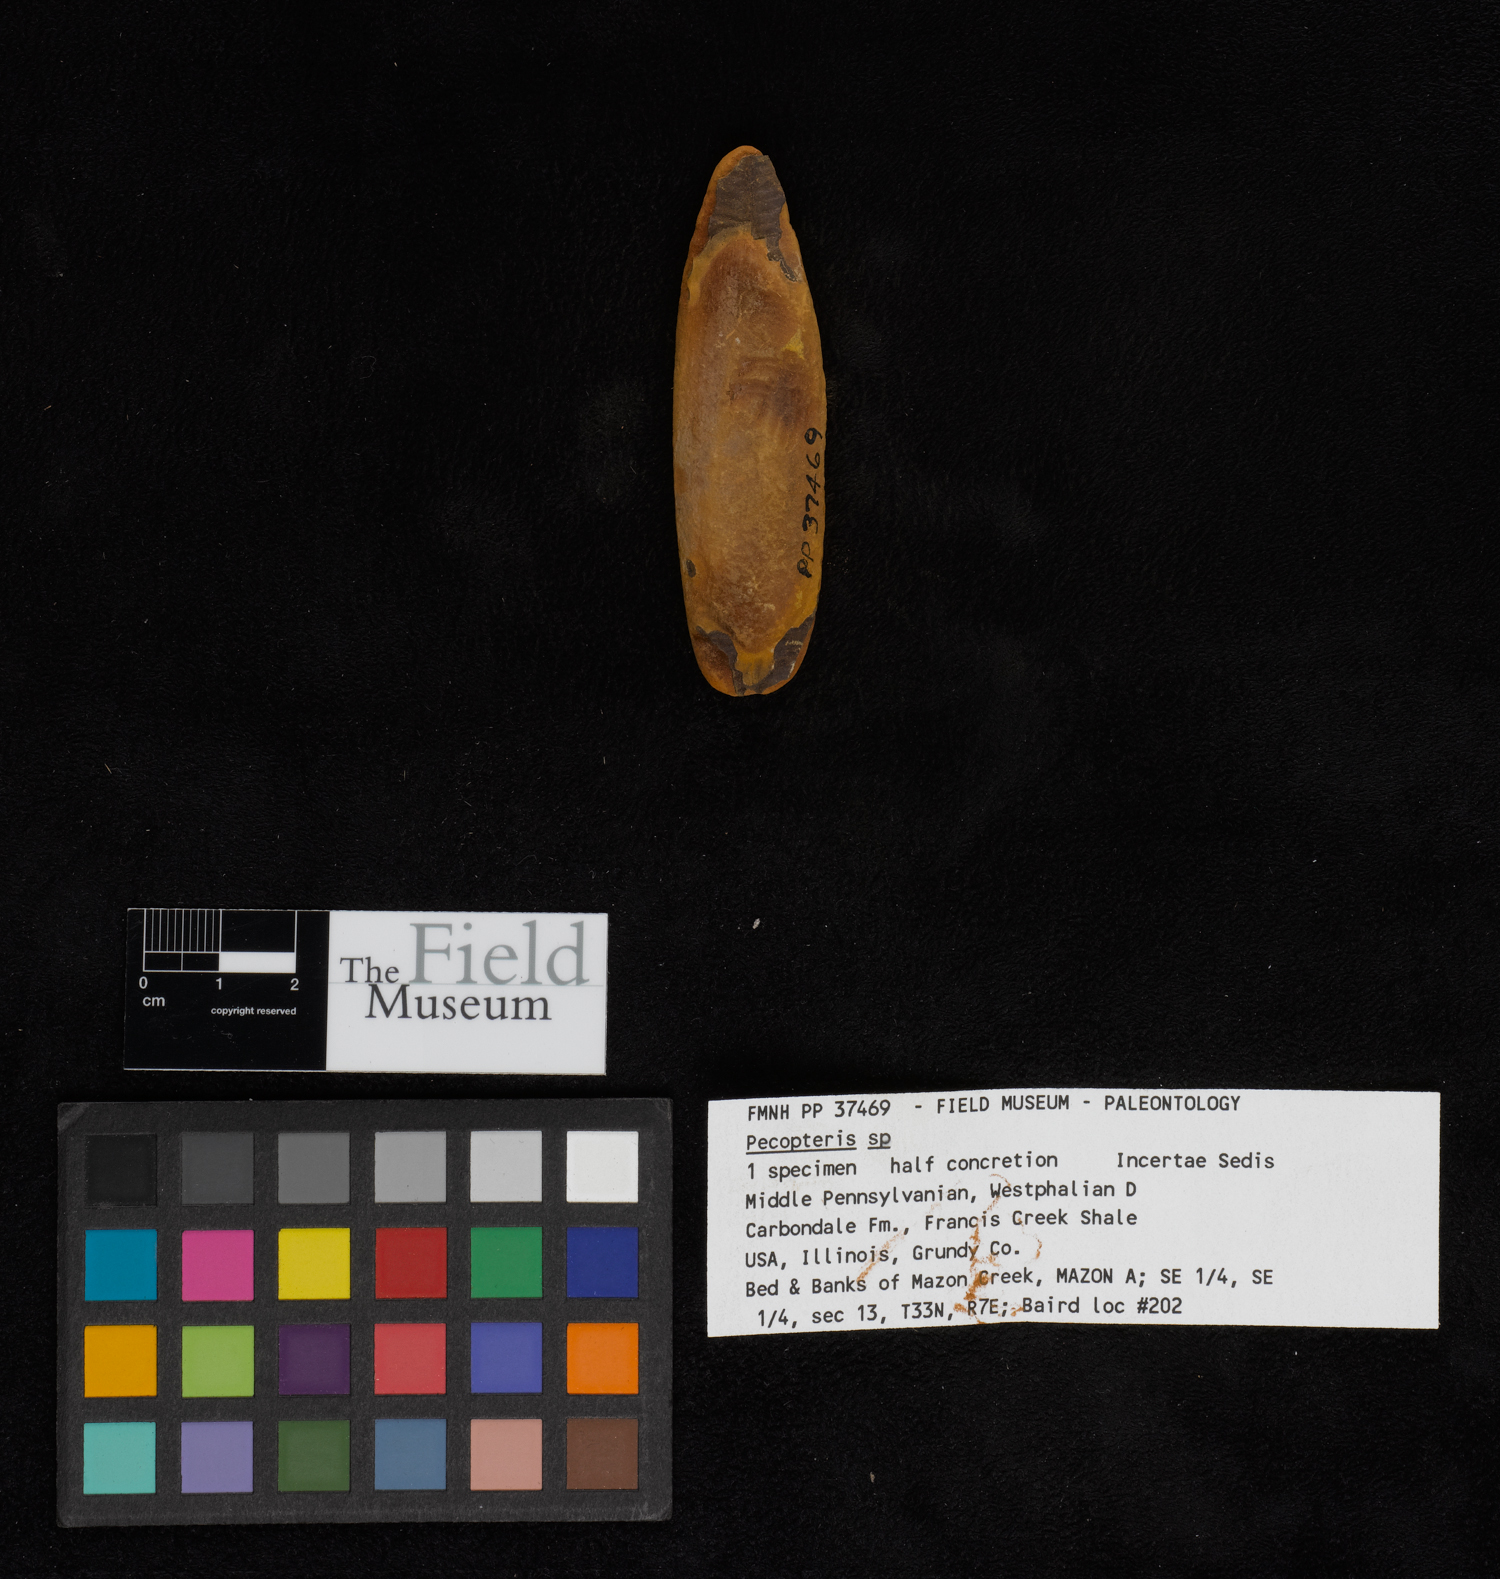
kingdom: Plantae
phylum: Tracheophyta
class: Polypodiopsida
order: Marattiales
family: Asterothecaceae
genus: Pecopteris
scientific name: Pecopteris
